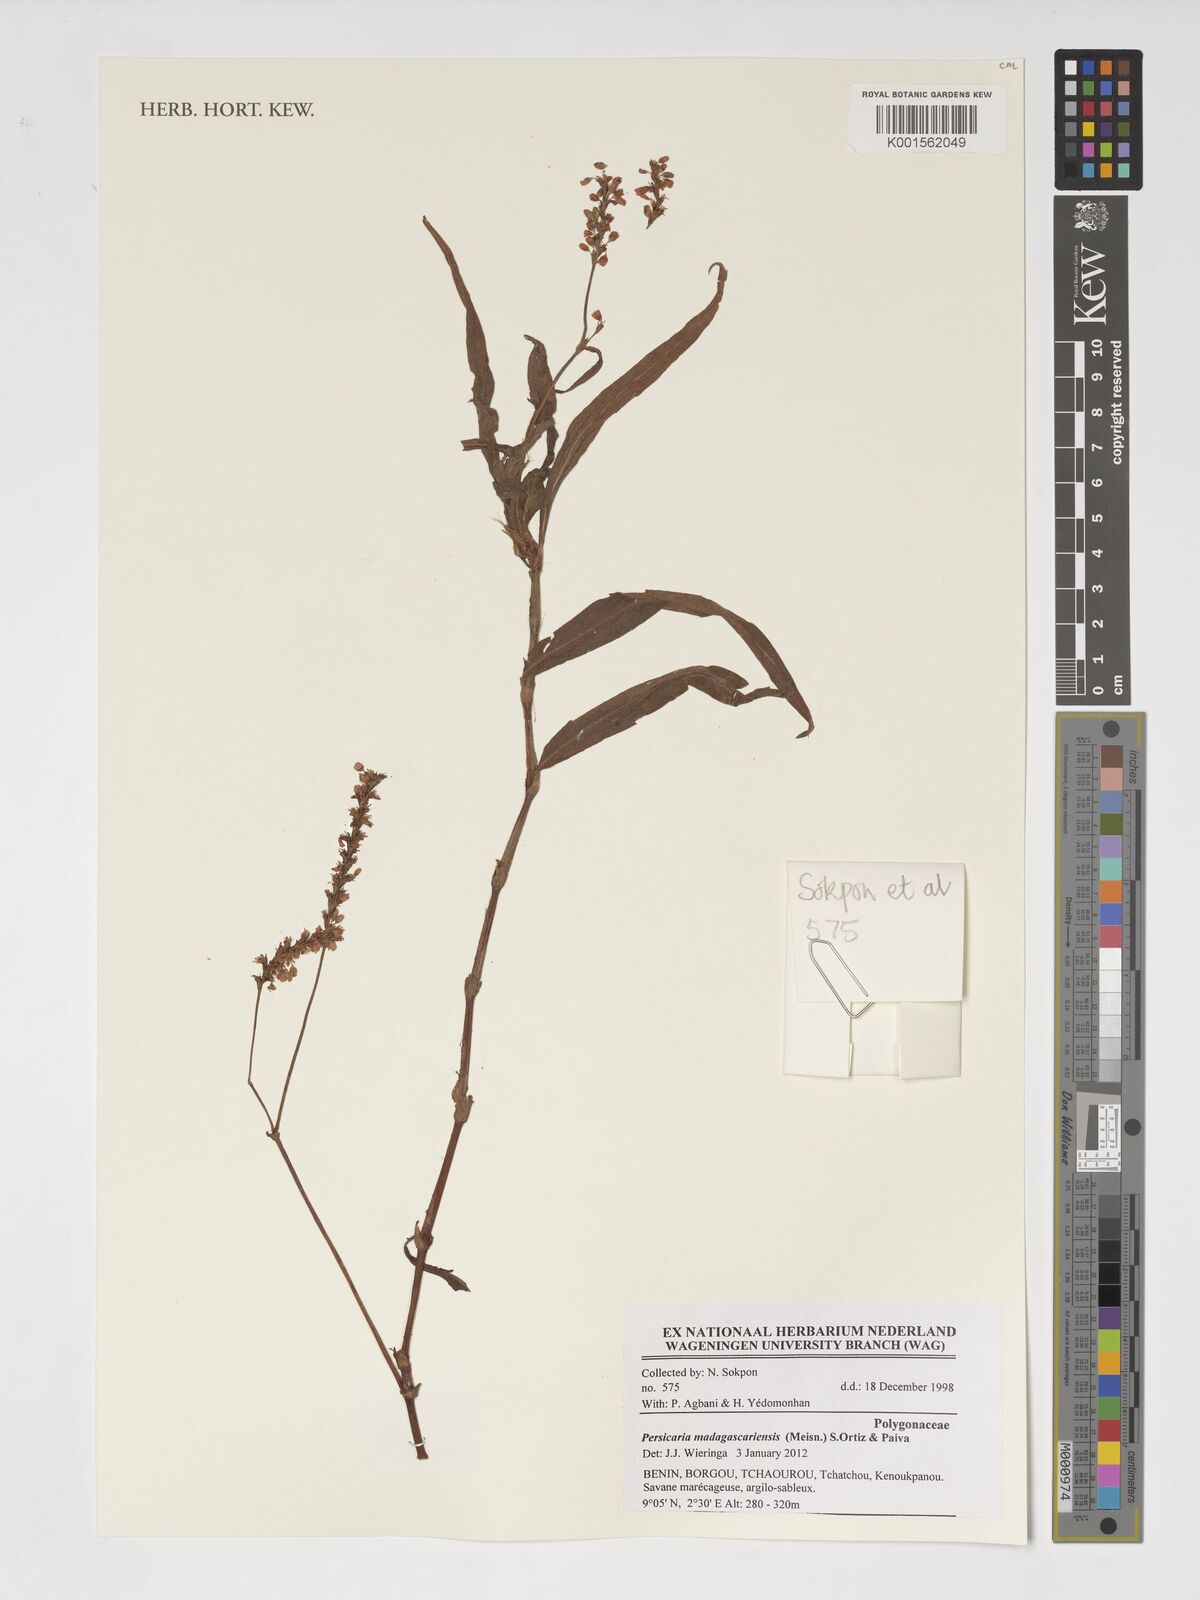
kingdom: Plantae
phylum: Tracheophyta
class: Magnoliopsida
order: Caryophyllales
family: Polygonaceae
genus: Persicaria
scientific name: Persicaria madagascariensis
